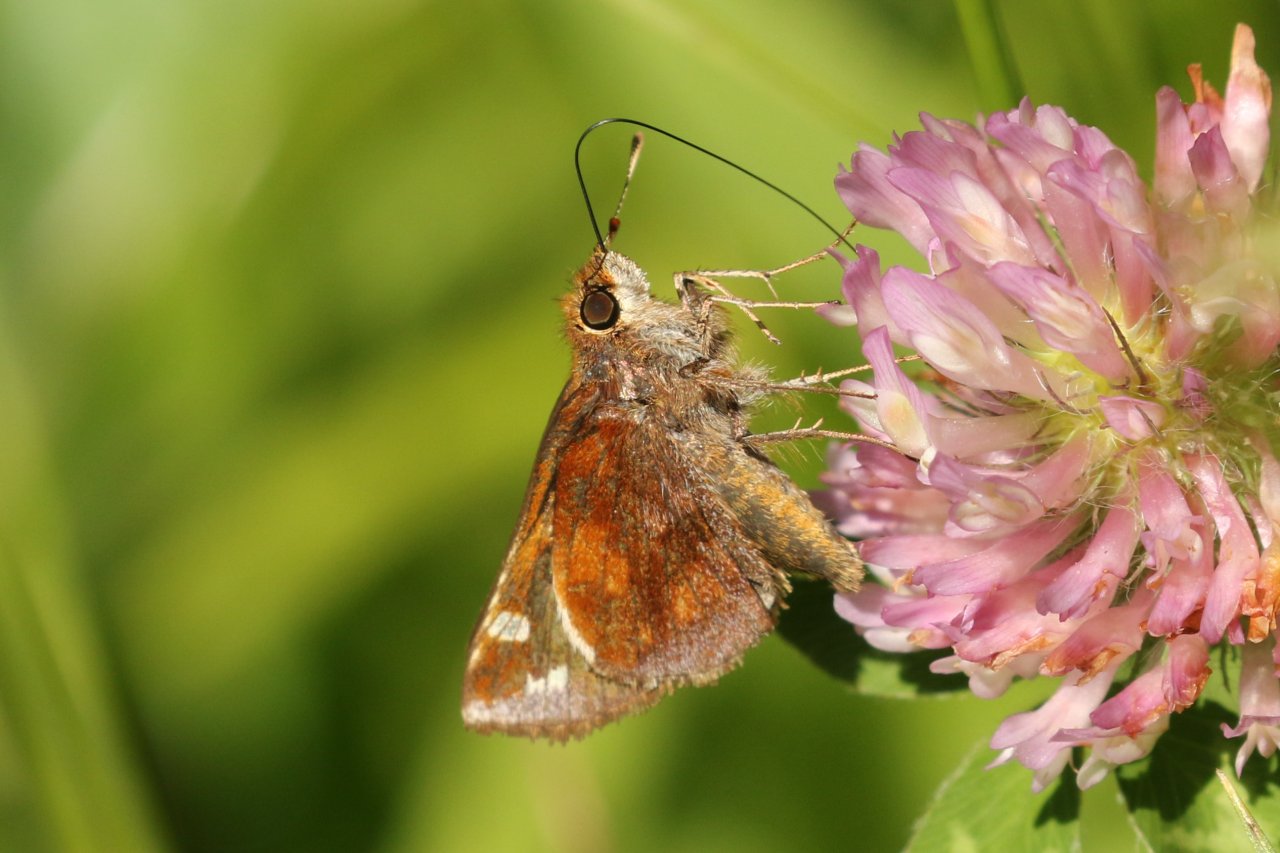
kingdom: Animalia
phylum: Arthropoda
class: Insecta
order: Lepidoptera
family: Hesperiidae
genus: Lon
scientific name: Lon zabulon
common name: Zabulon Skipper
